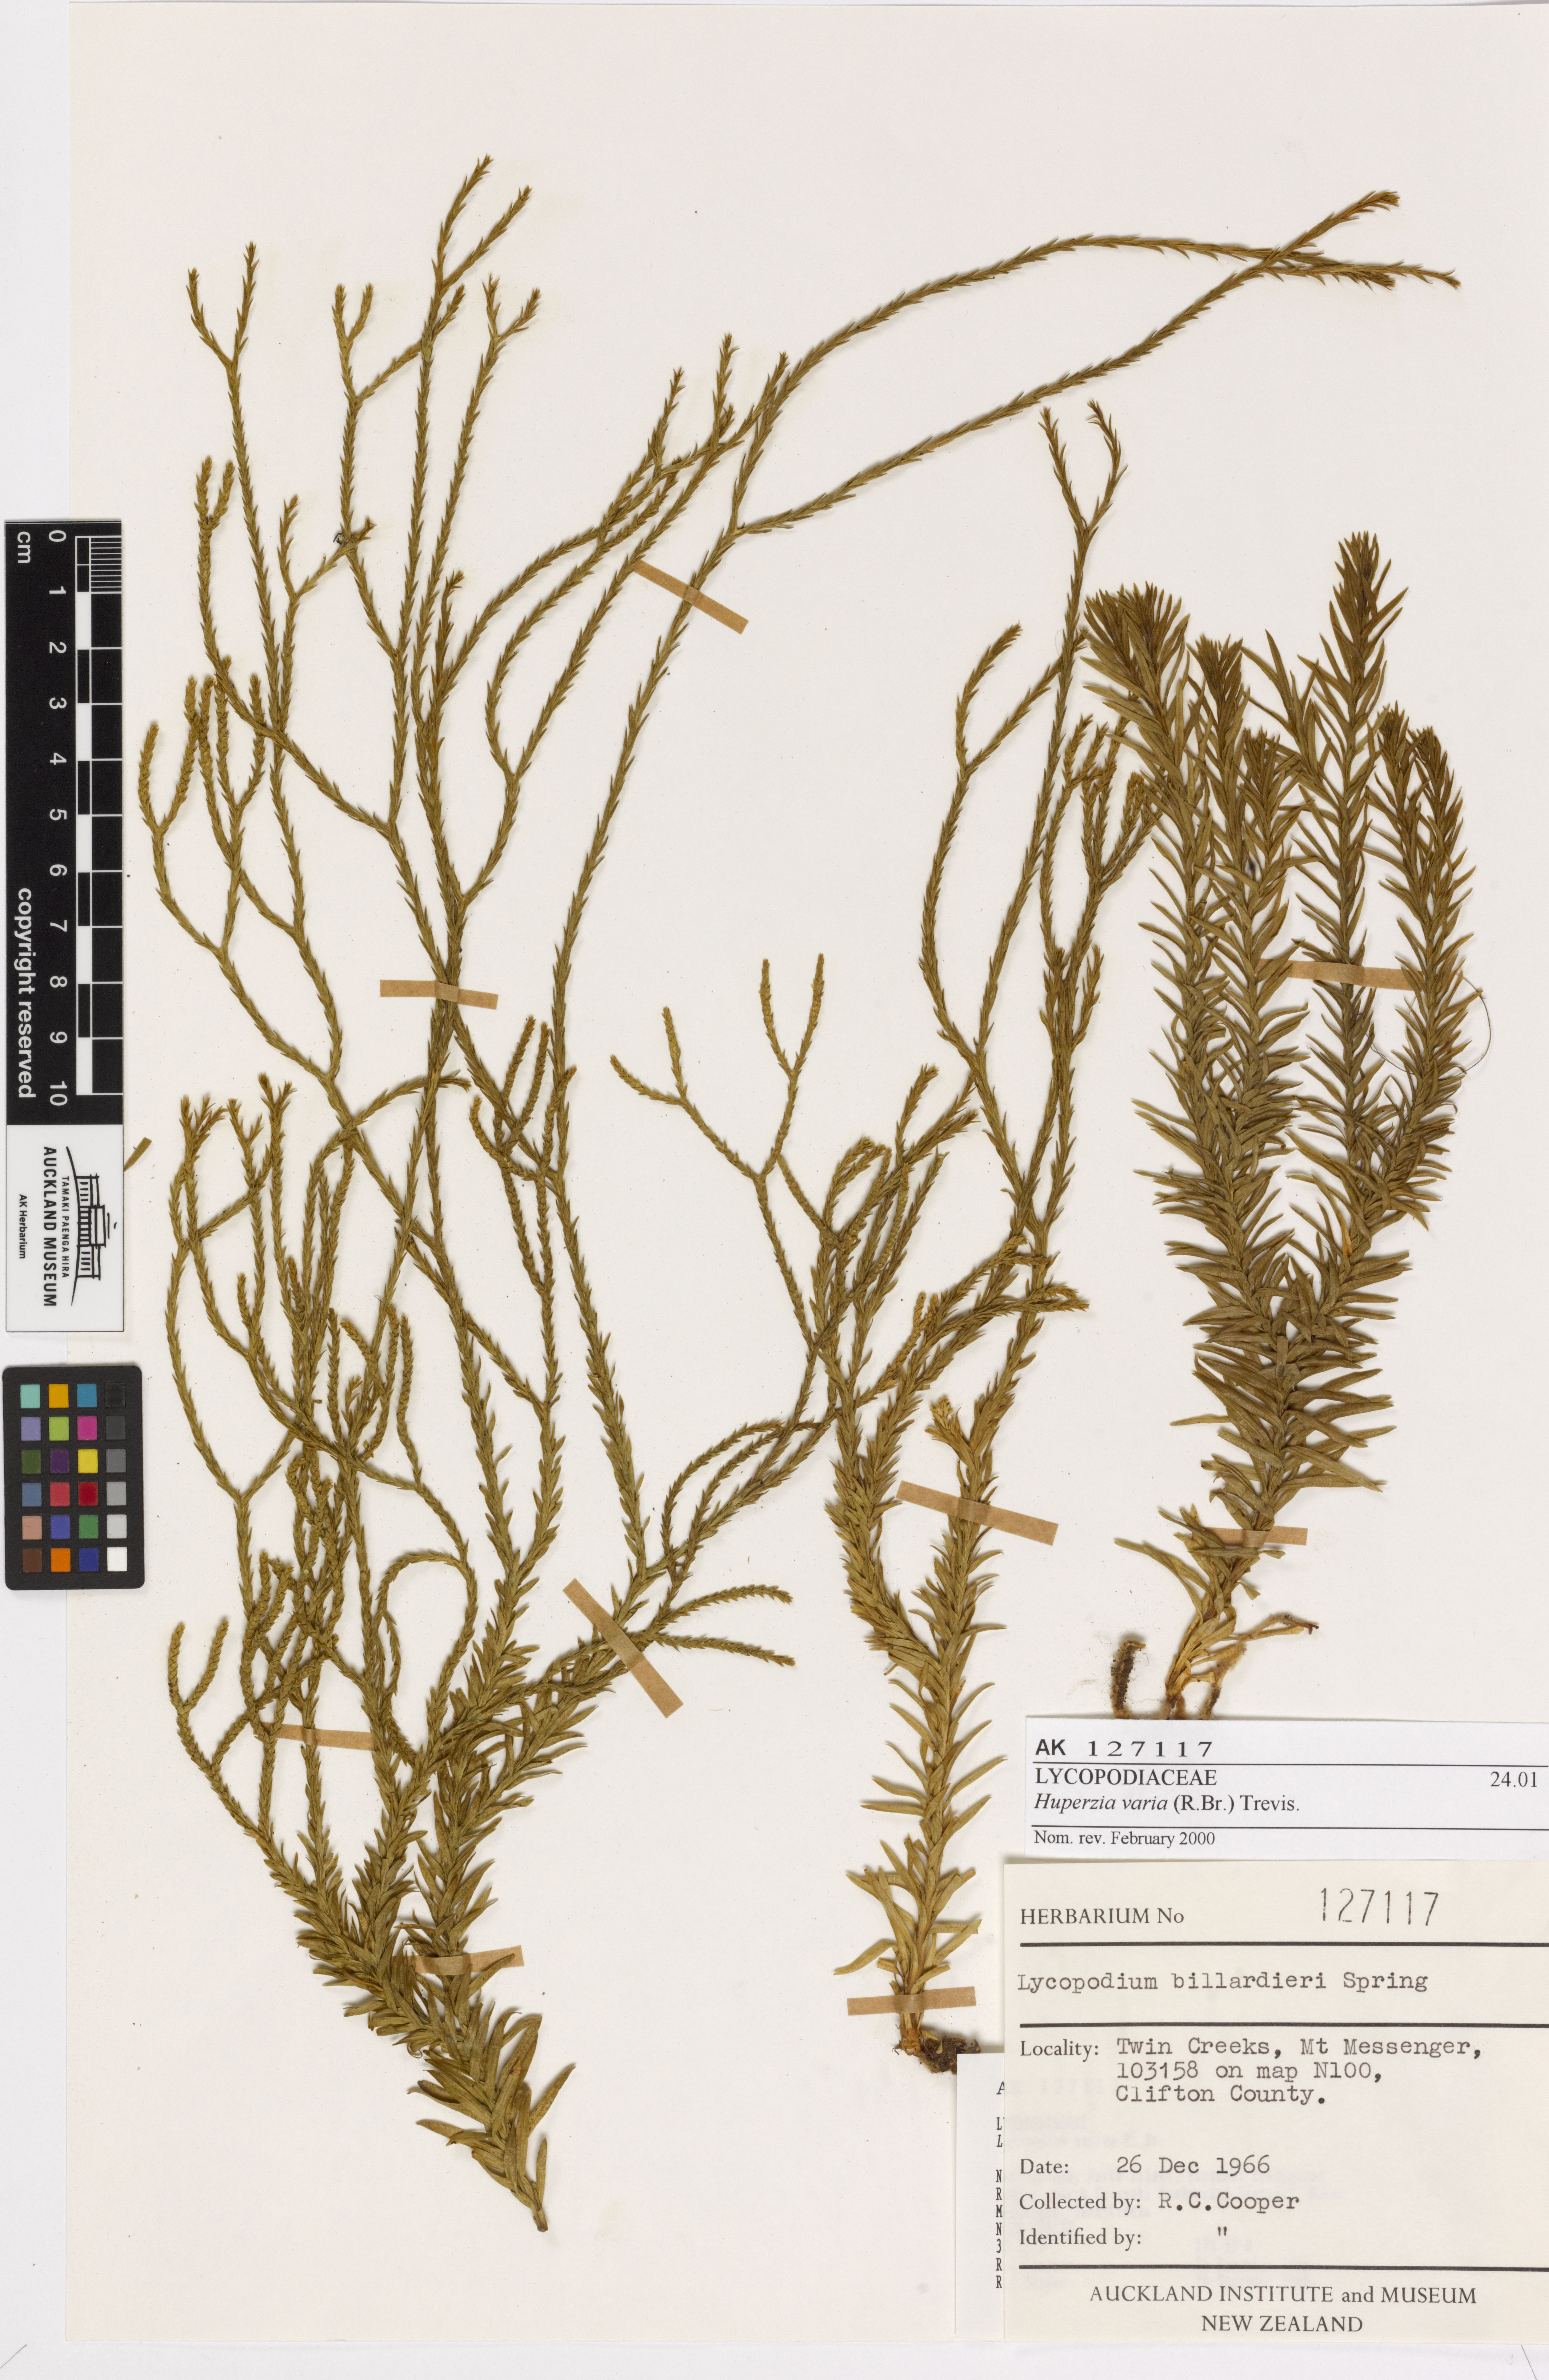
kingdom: Plantae
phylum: Tracheophyta
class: Lycopodiopsida
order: Lycopodiales
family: Lycopodiaceae
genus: Phlegmariurus
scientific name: Phlegmariurus billardierei
